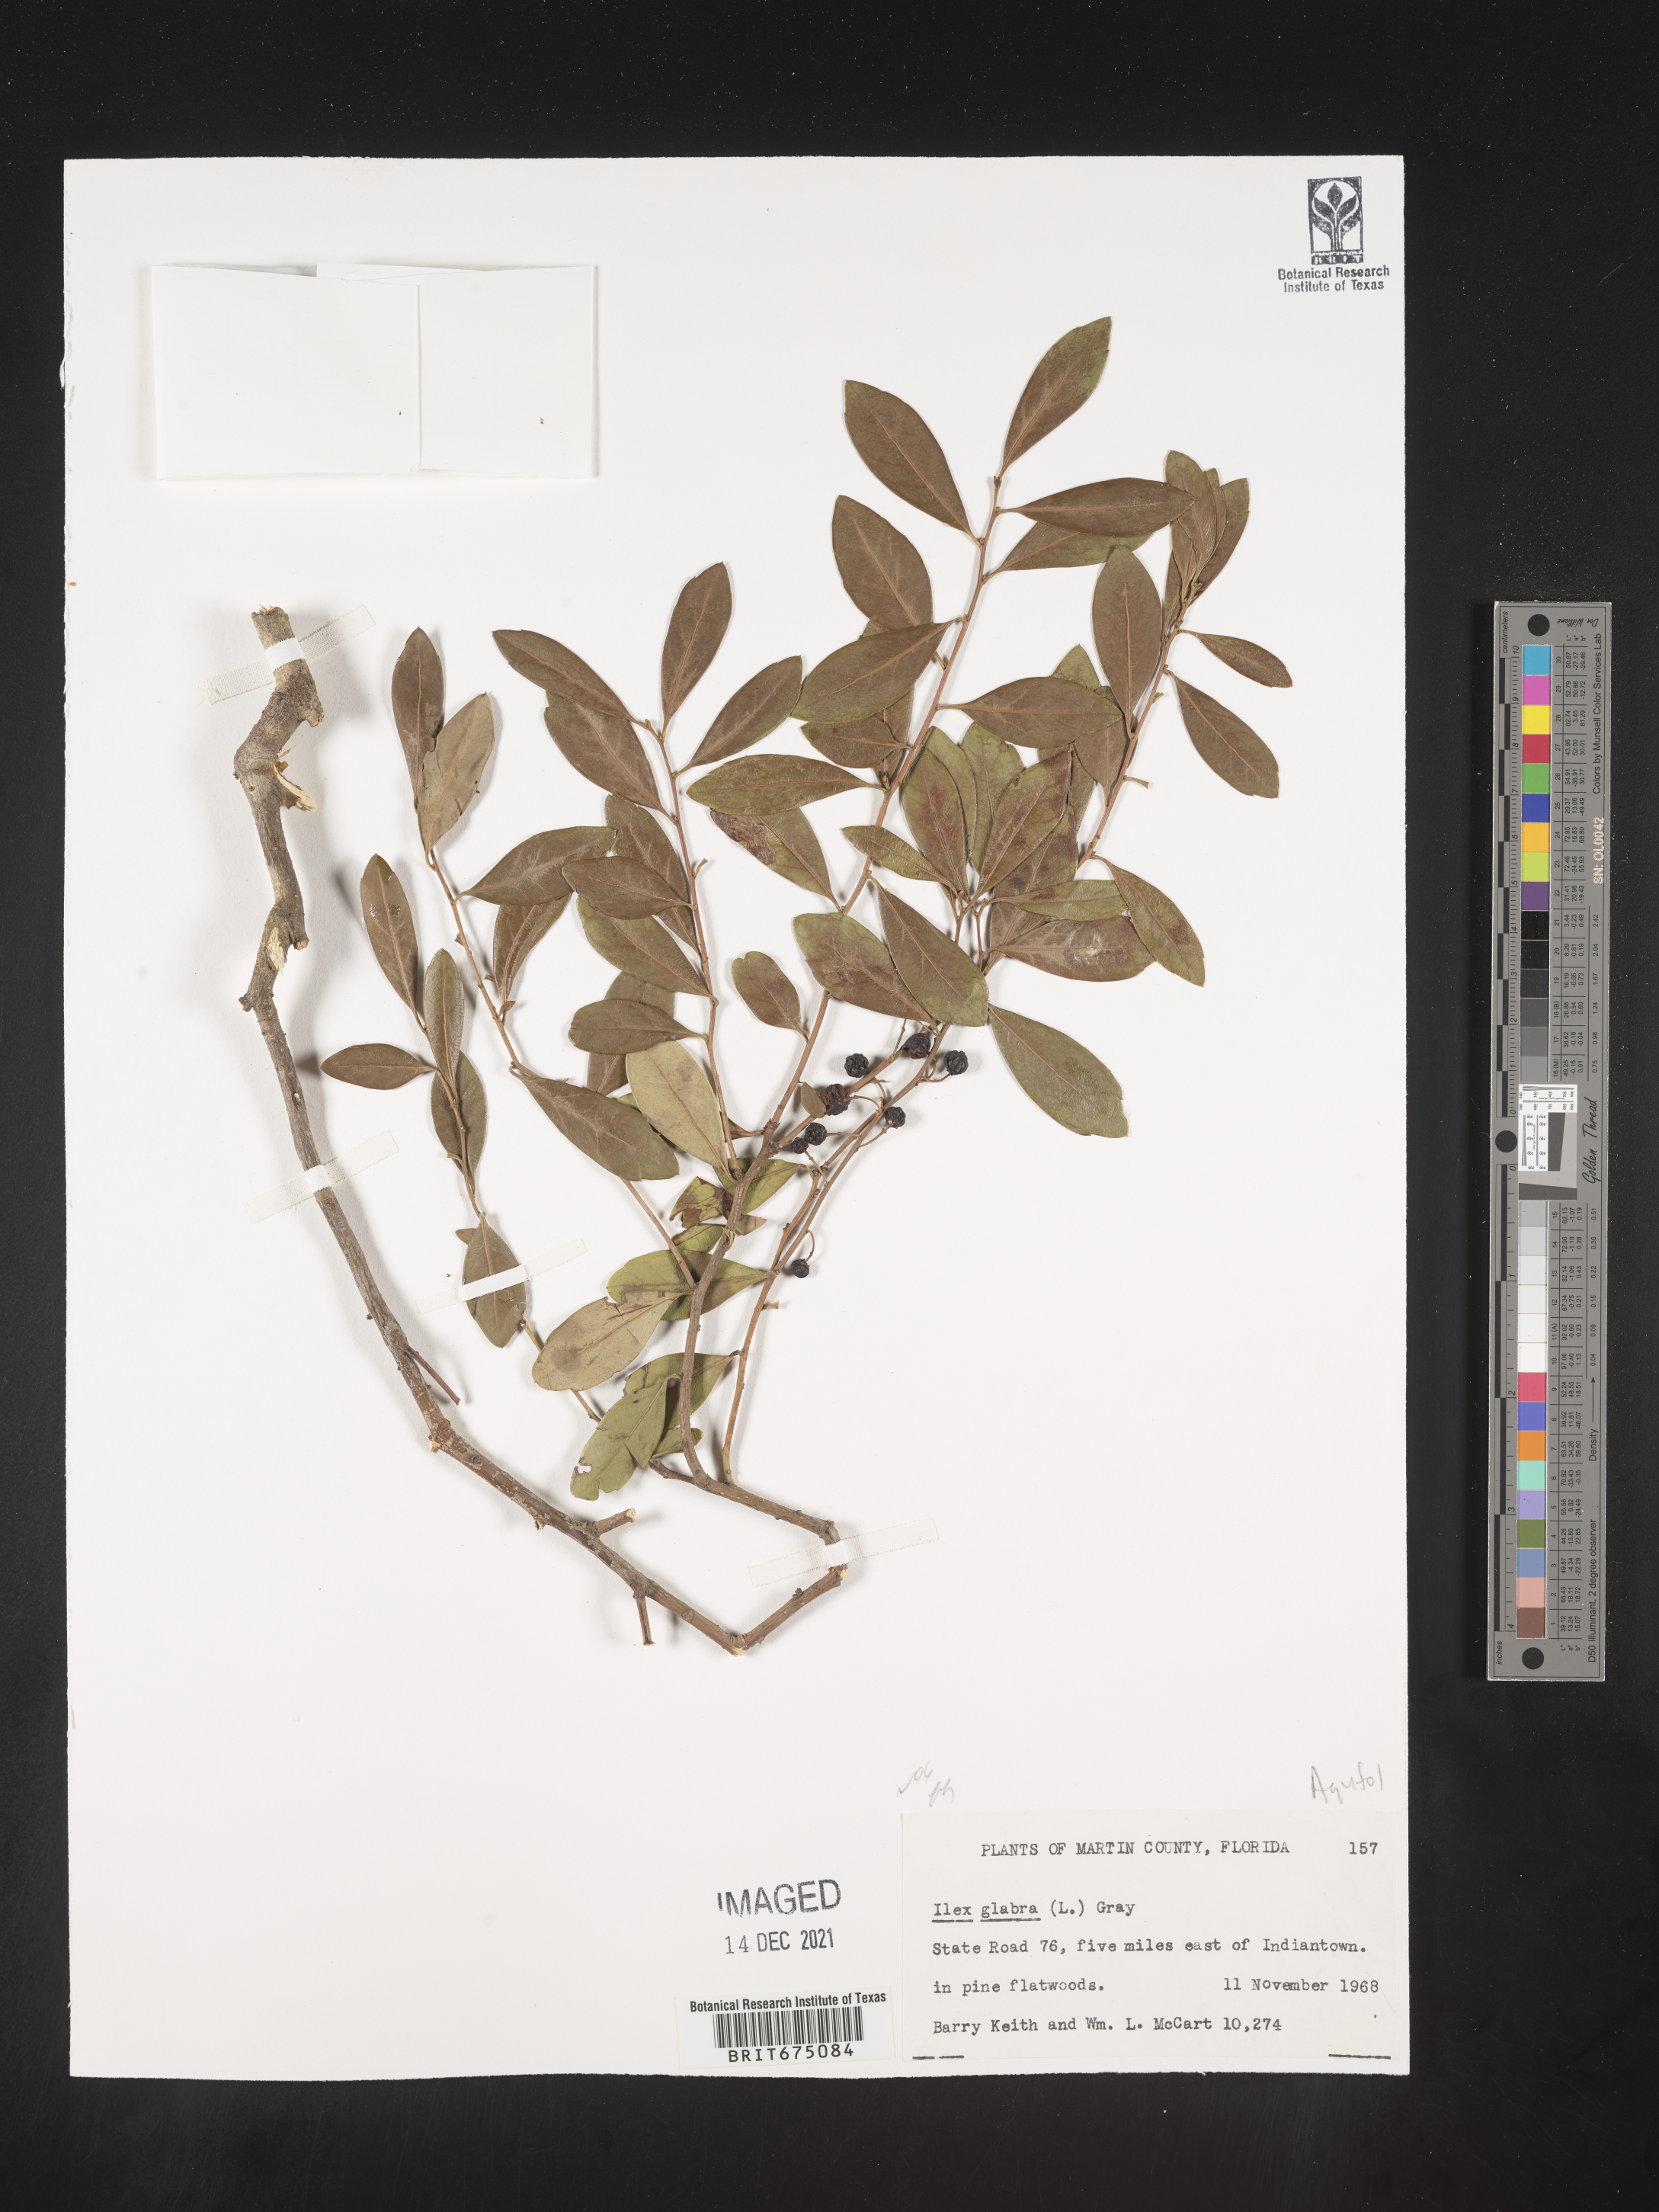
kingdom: Plantae
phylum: Tracheophyta
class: Magnoliopsida
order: Aquifoliales
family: Aquifoliaceae
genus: Ilex
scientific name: Ilex glabra
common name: Bitter gallberry
